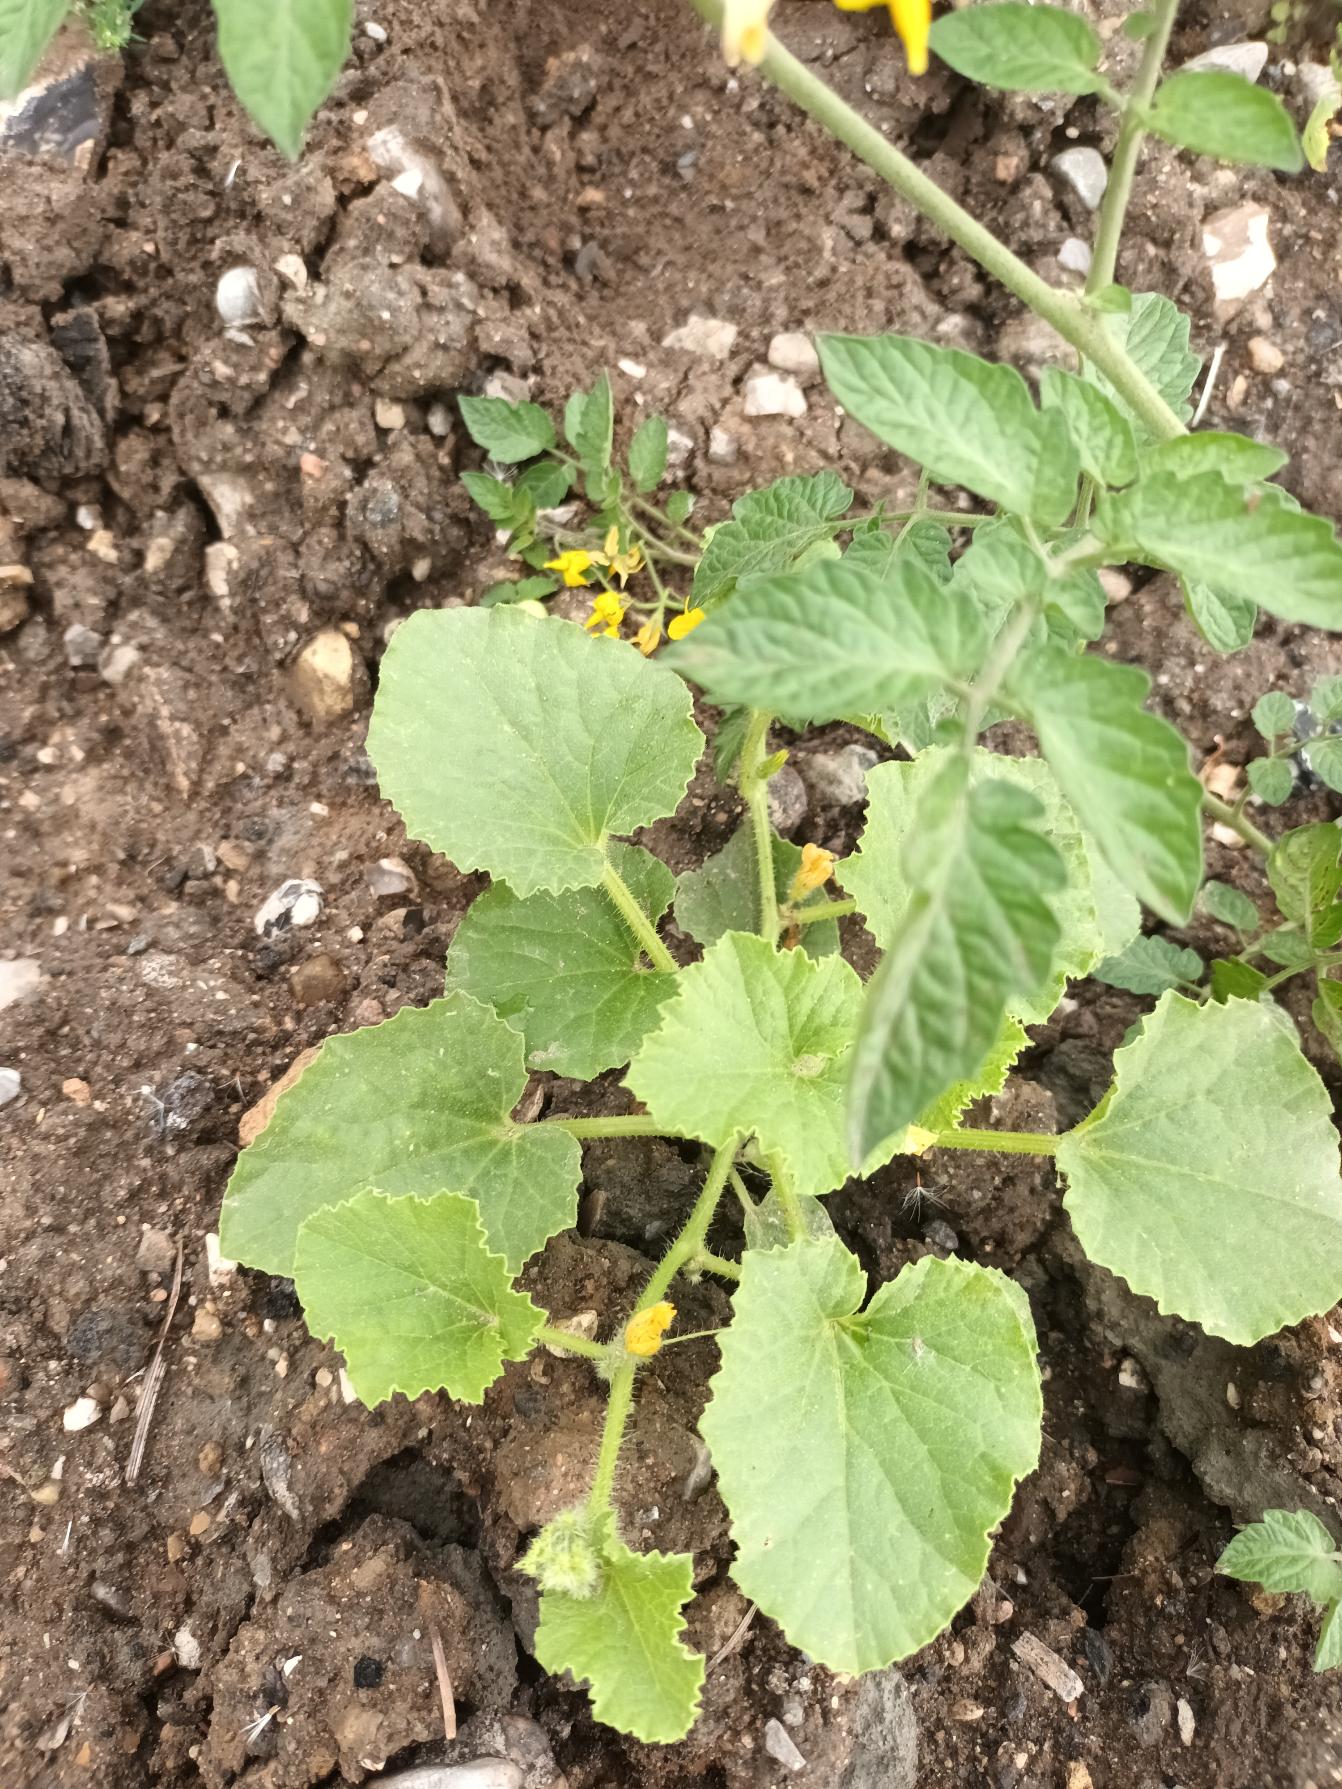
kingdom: Plantae
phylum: Tracheophyta
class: Magnoliopsida
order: Cucurbitales
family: Cucurbitaceae
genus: Cucumis
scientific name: Cucumis sativus
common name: Agurk
